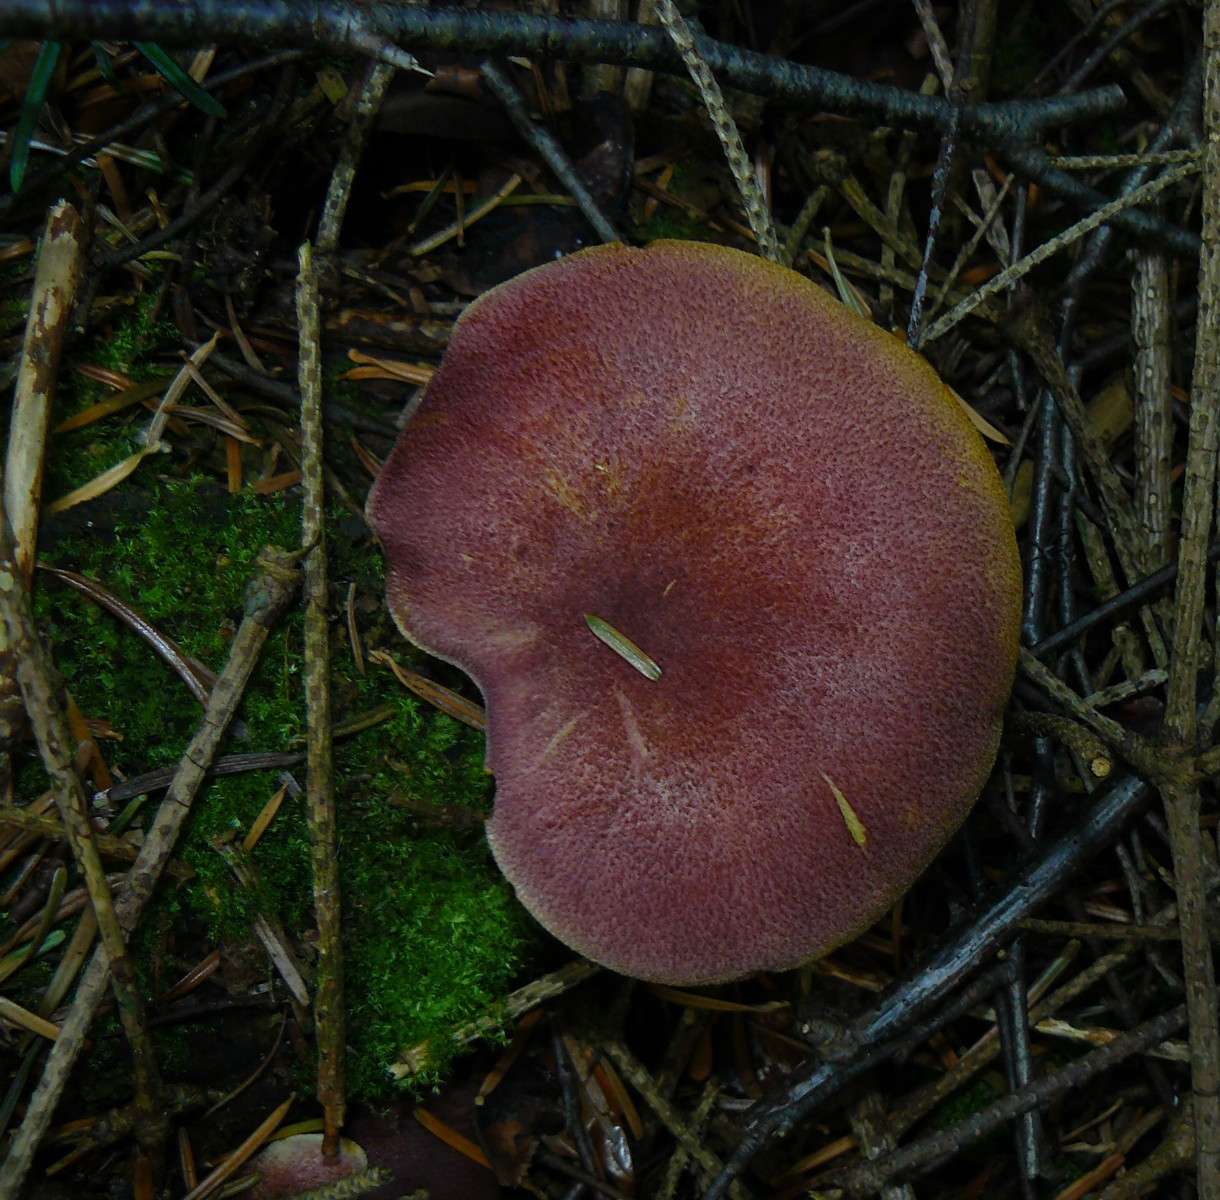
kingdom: Fungi
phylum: Basidiomycota
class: Agaricomycetes
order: Agaricales
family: Tricholomataceae
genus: Tricholomopsis
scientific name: Tricholomopsis rutilans
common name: purpur-væbnerhat
